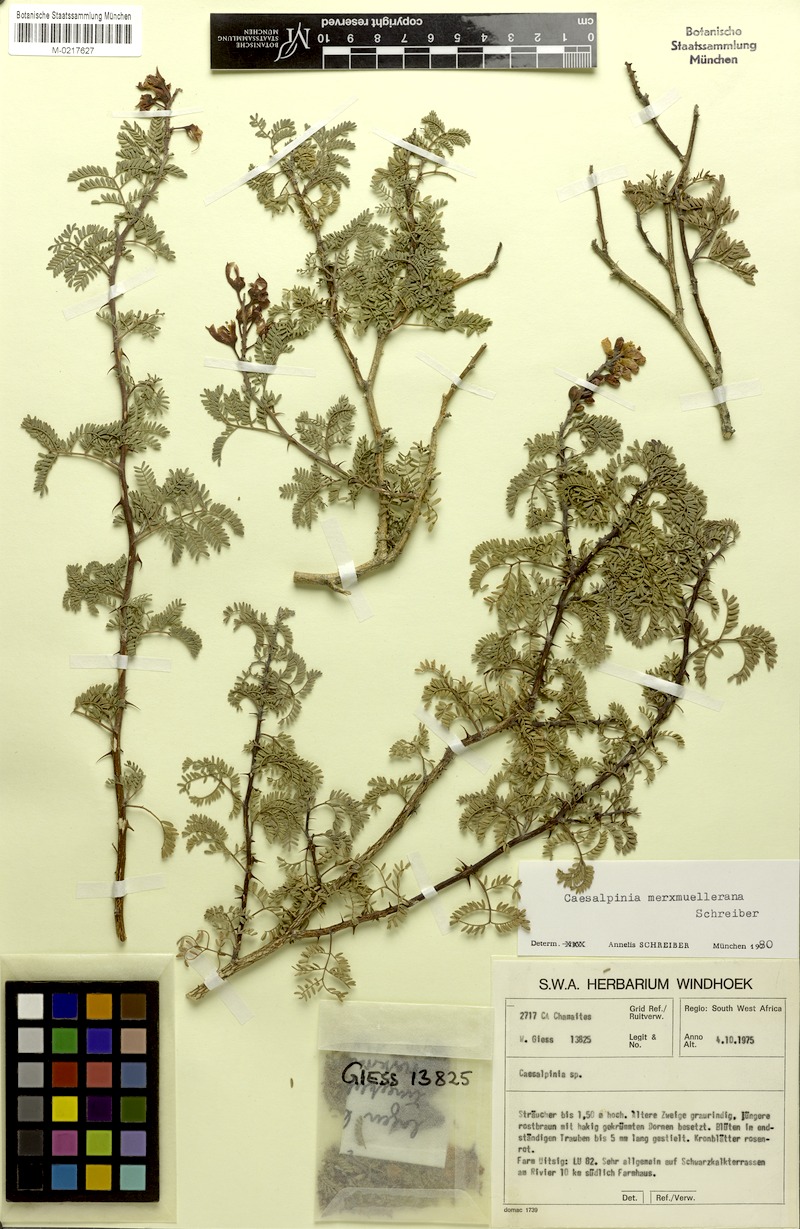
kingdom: Plantae
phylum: Tracheophyta
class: Magnoliopsida
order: Fabales
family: Fabaceae
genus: Gelrebia
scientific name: Gelrebia merxmuellerana
